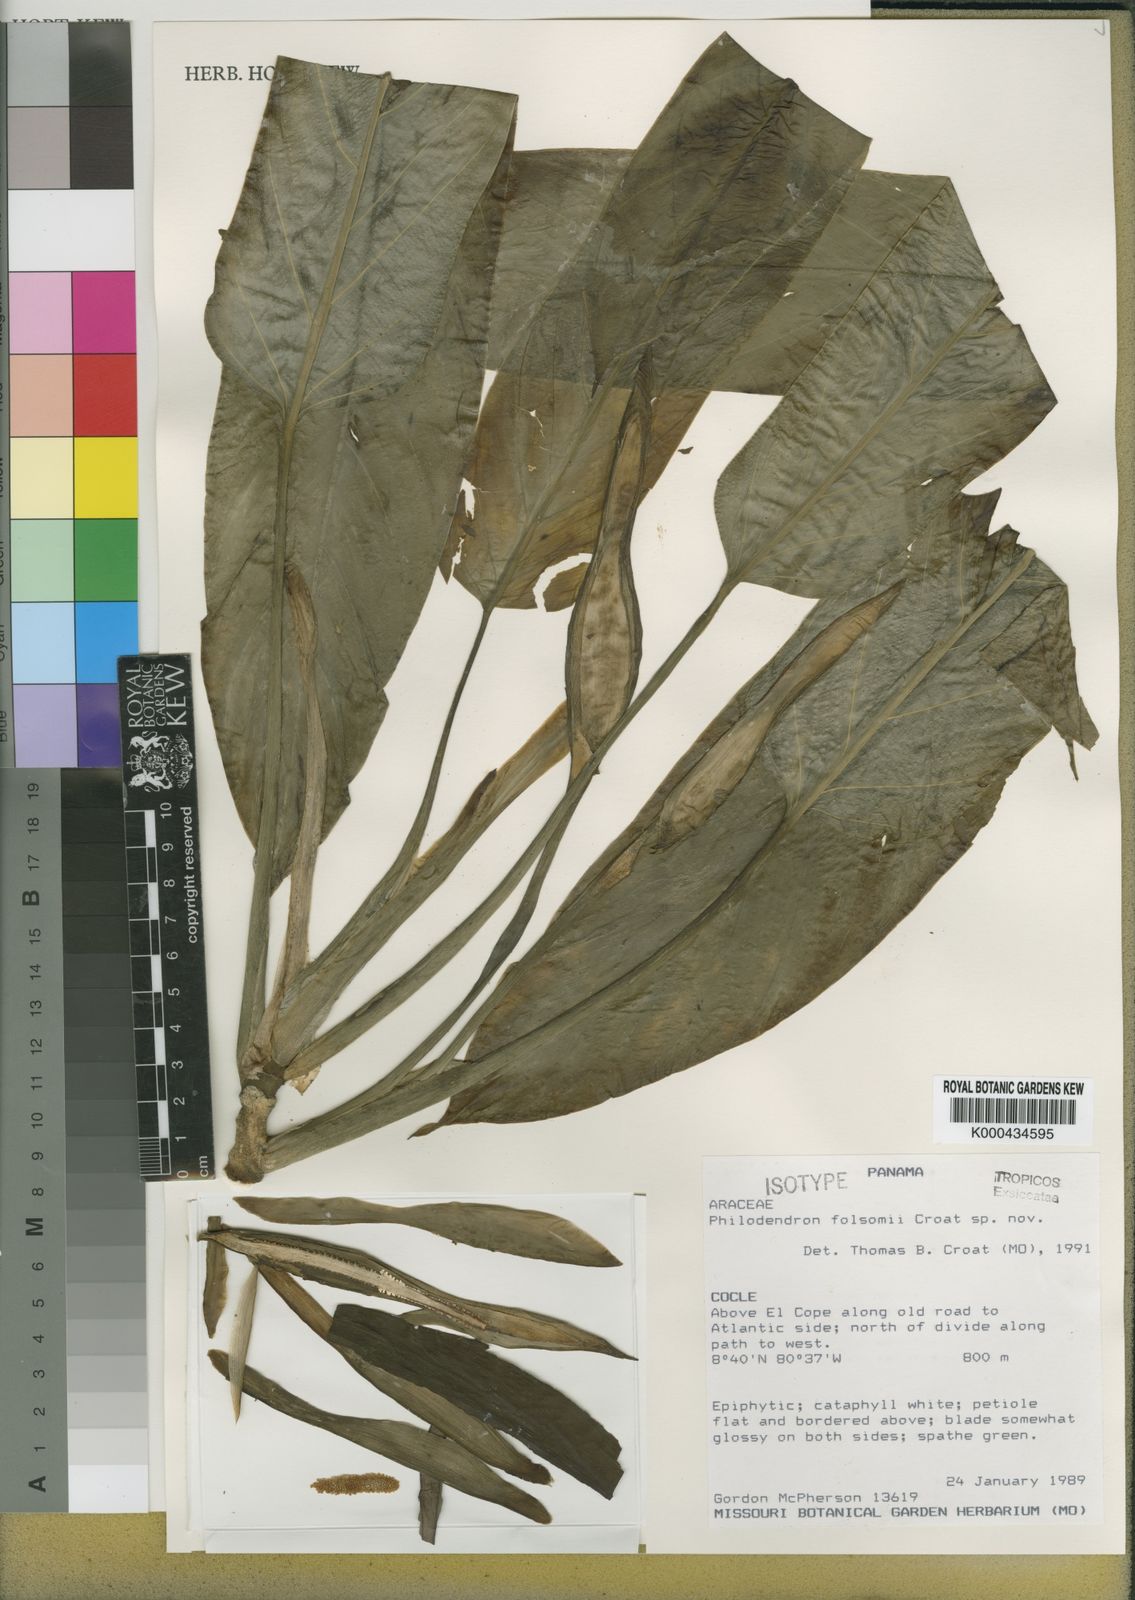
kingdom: Plantae
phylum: Tracheophyta
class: Liliopsida
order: Alismatales
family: Araceae
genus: Philodendron
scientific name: Philodendron folsomii
